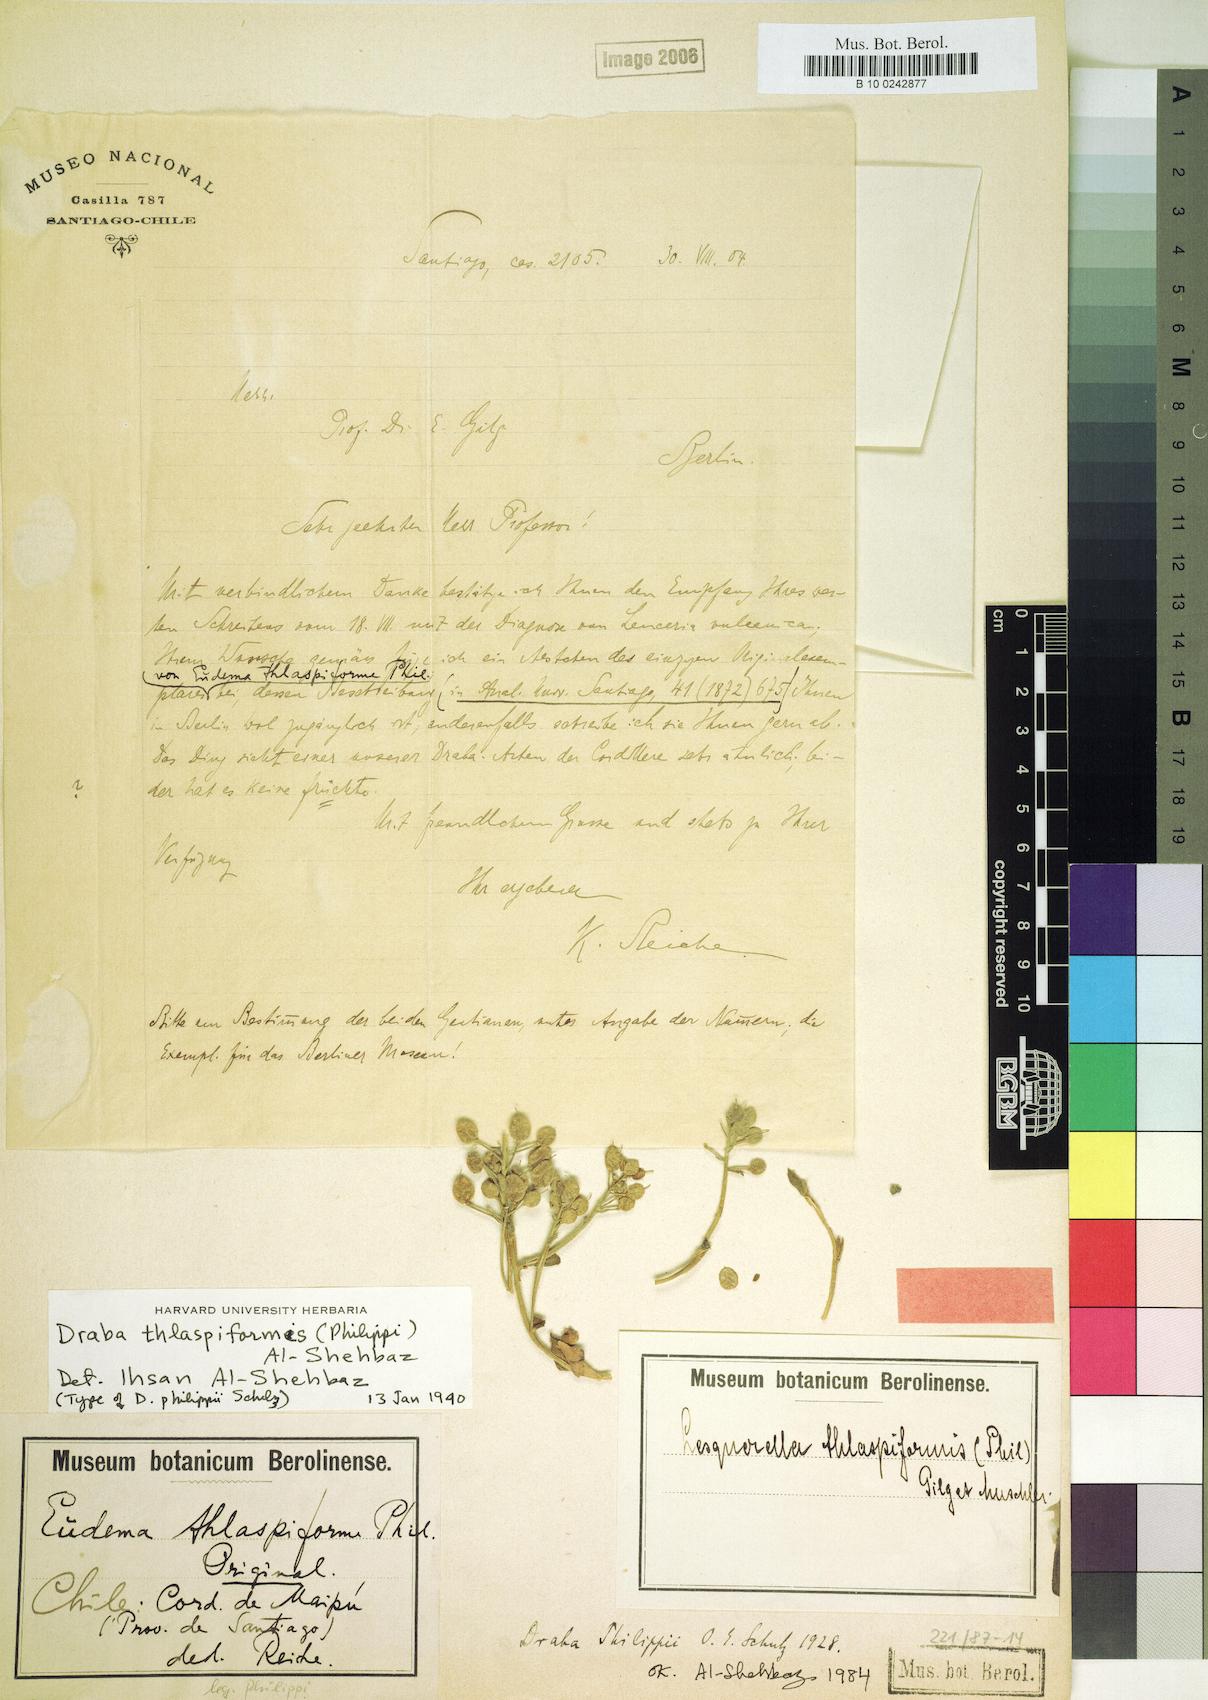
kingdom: Plantae
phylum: Tracheophyta
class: Magnoliopsida
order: Brassicales
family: Brassicaceae
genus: Draba
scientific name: Draba thlaspiformis
